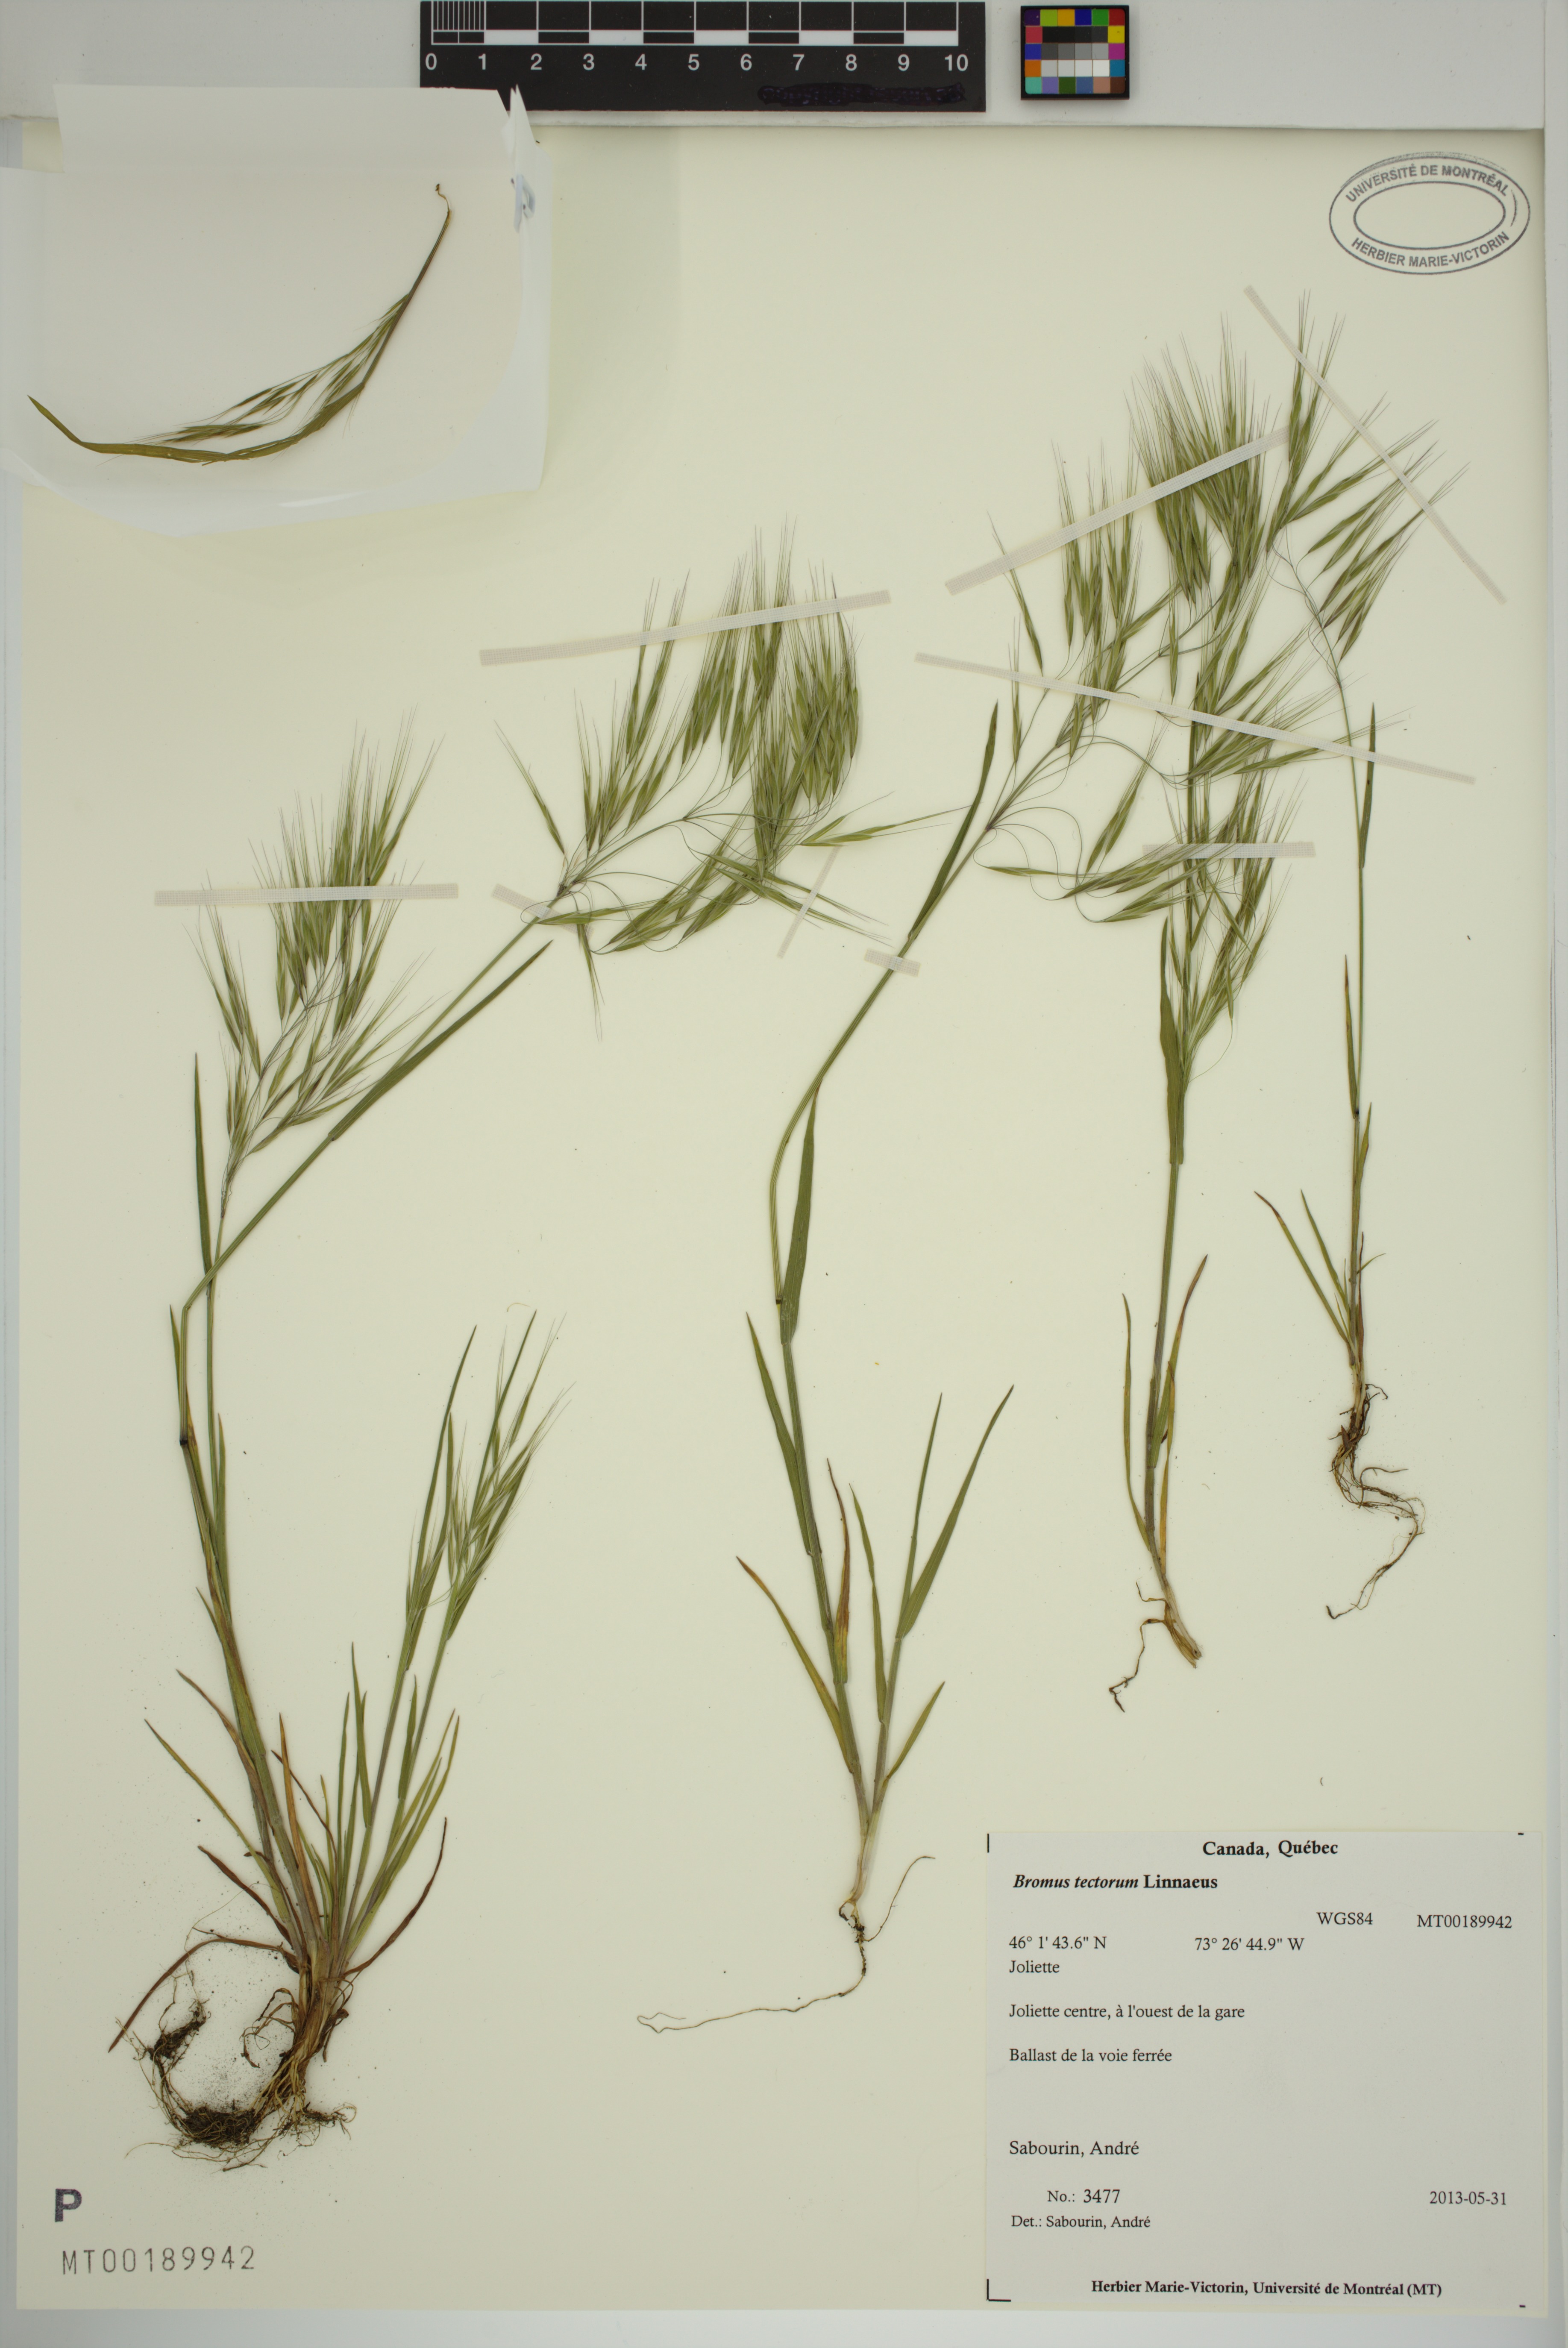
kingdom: Plantae
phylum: Tracheophyta
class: Liliopsida
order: Poales
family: Poaceae
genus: Bromus
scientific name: Bromus tectorum
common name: Cheatgrass
